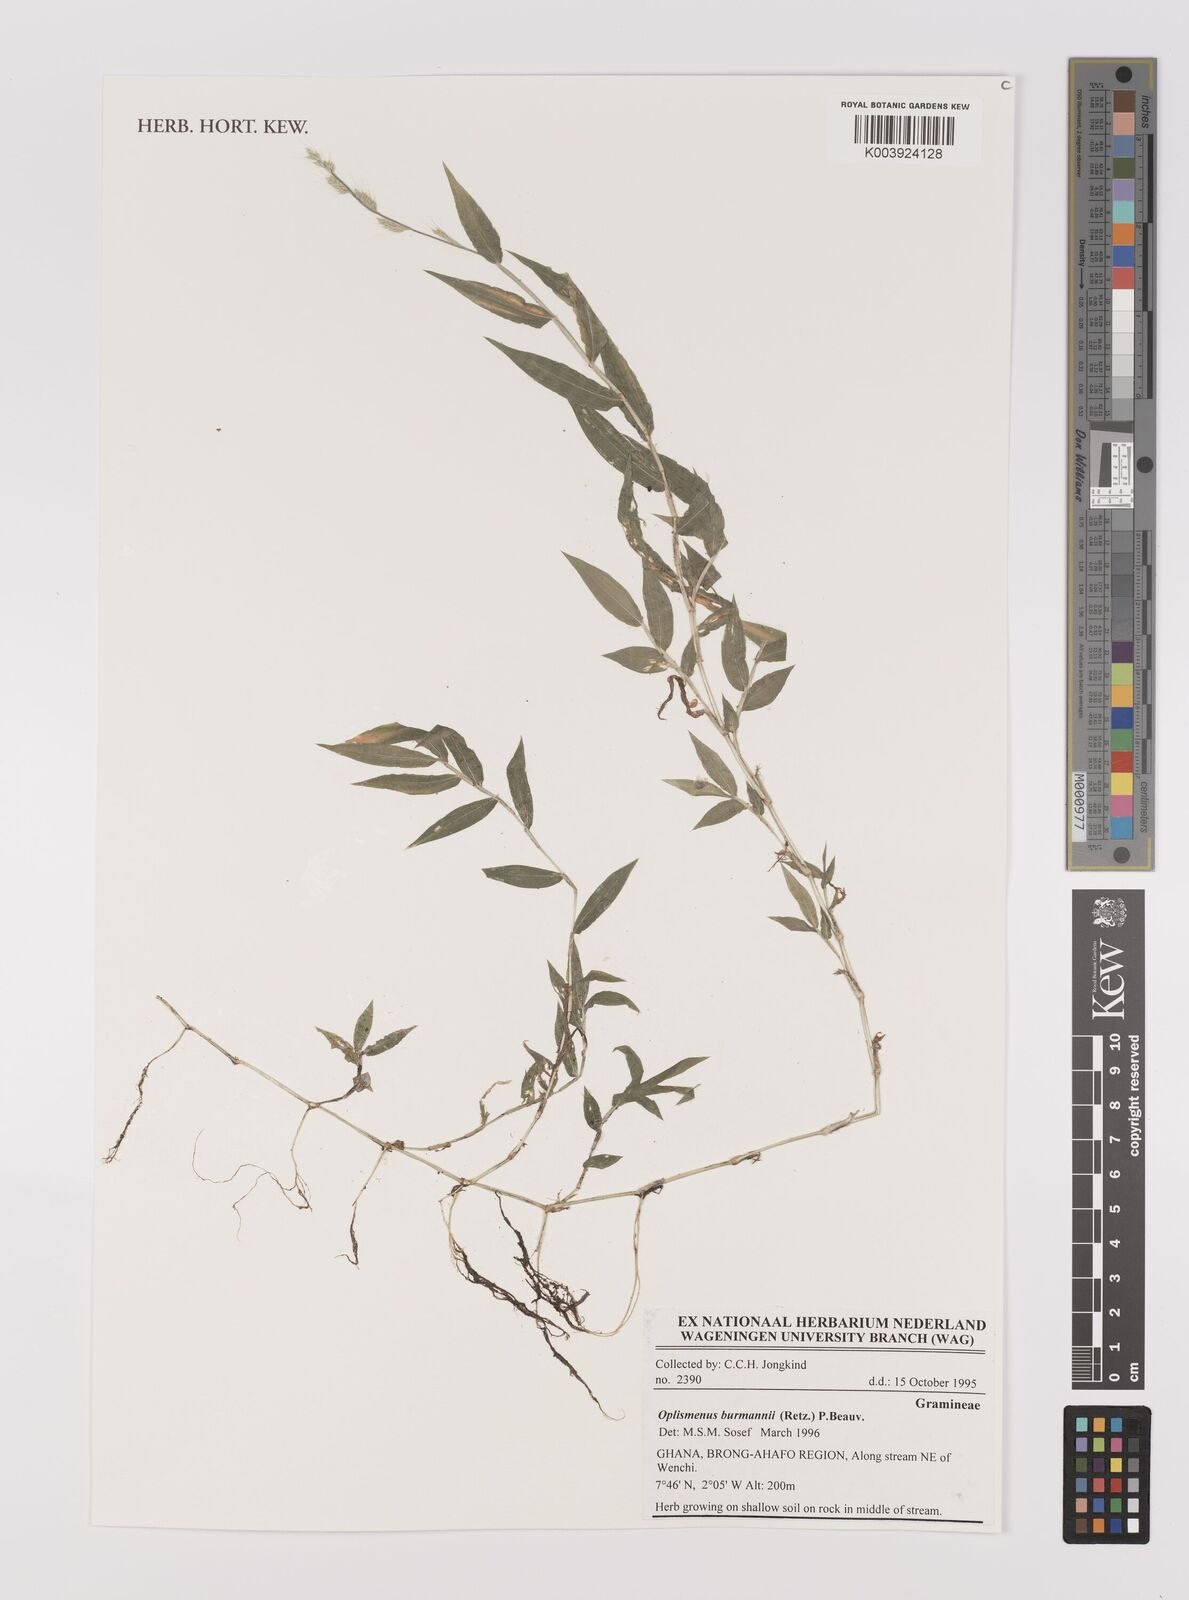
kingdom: Plantae
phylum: Tracheophyta
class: Liliopsida
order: Poales
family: Poaceae
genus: Oplismenus
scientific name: Oplismenus burmanni
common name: Burmann's basketgrass
